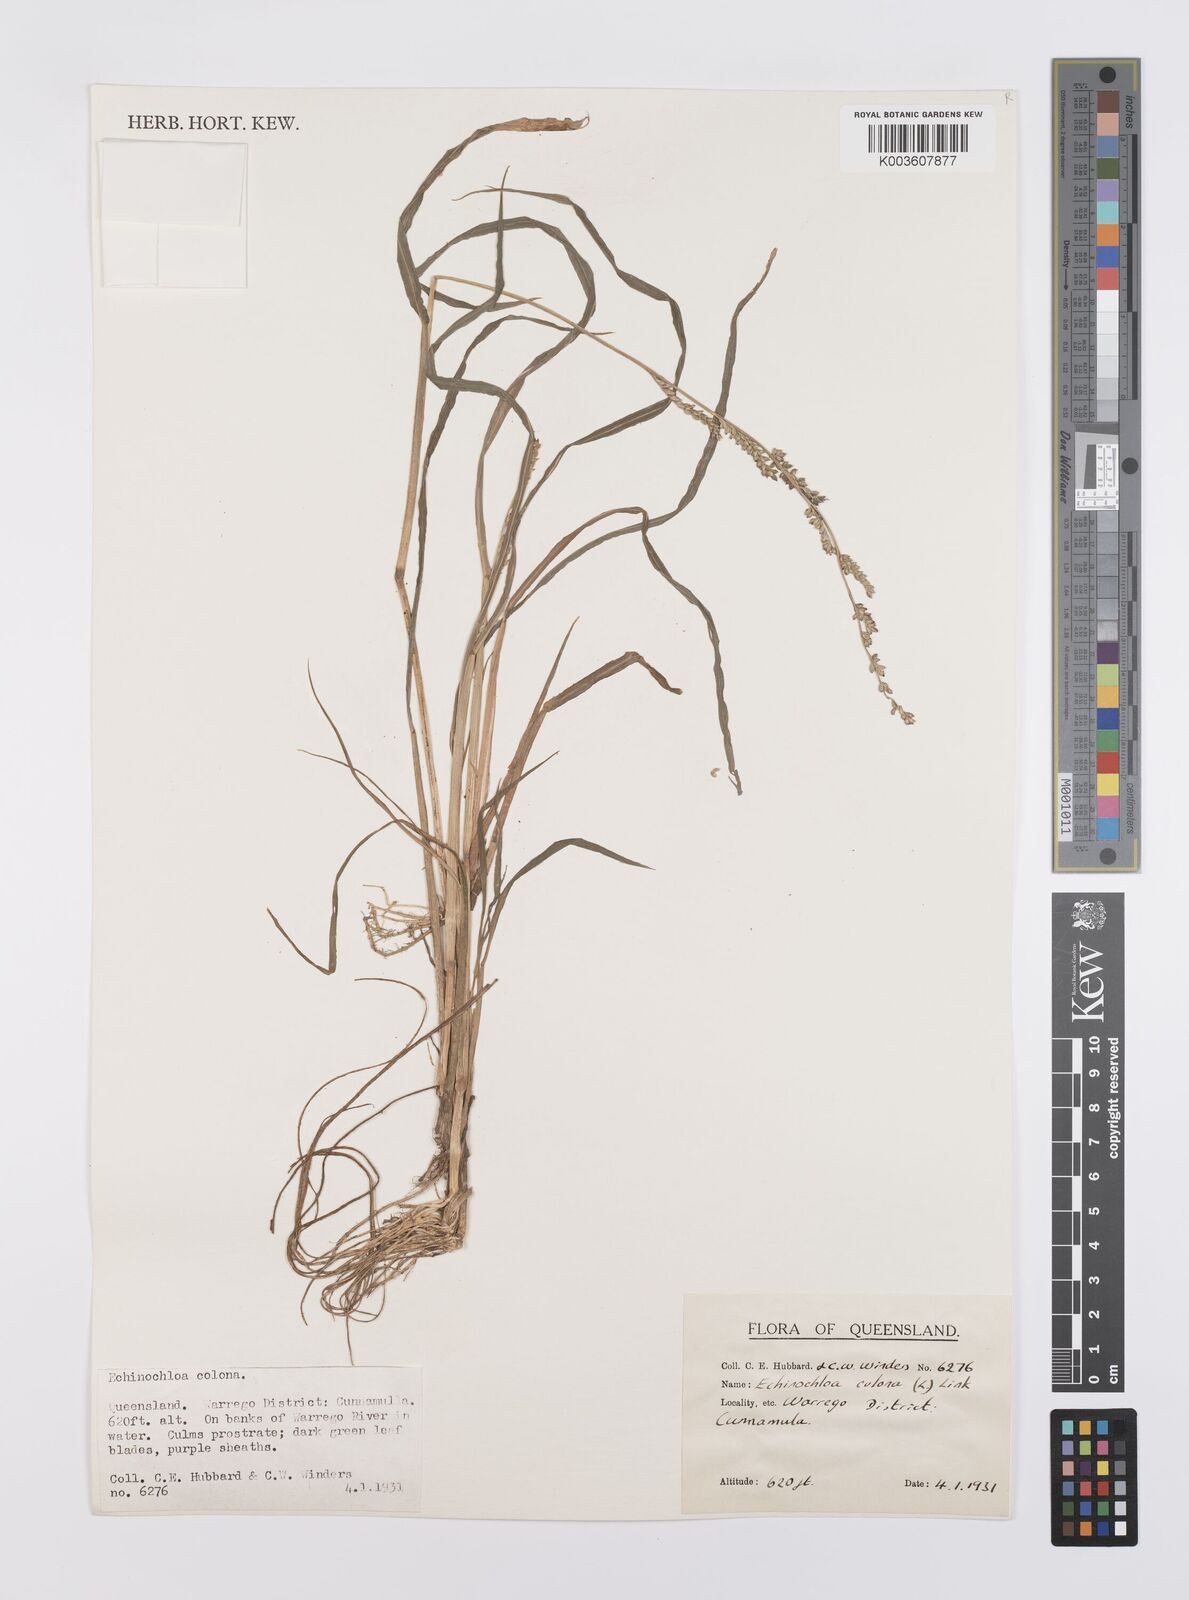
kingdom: Plantae
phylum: Tracheophyta
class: Liliopsida
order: Poales
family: Poaceae
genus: Echinochloa
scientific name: Echinochloa colonum
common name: Jungle rice
